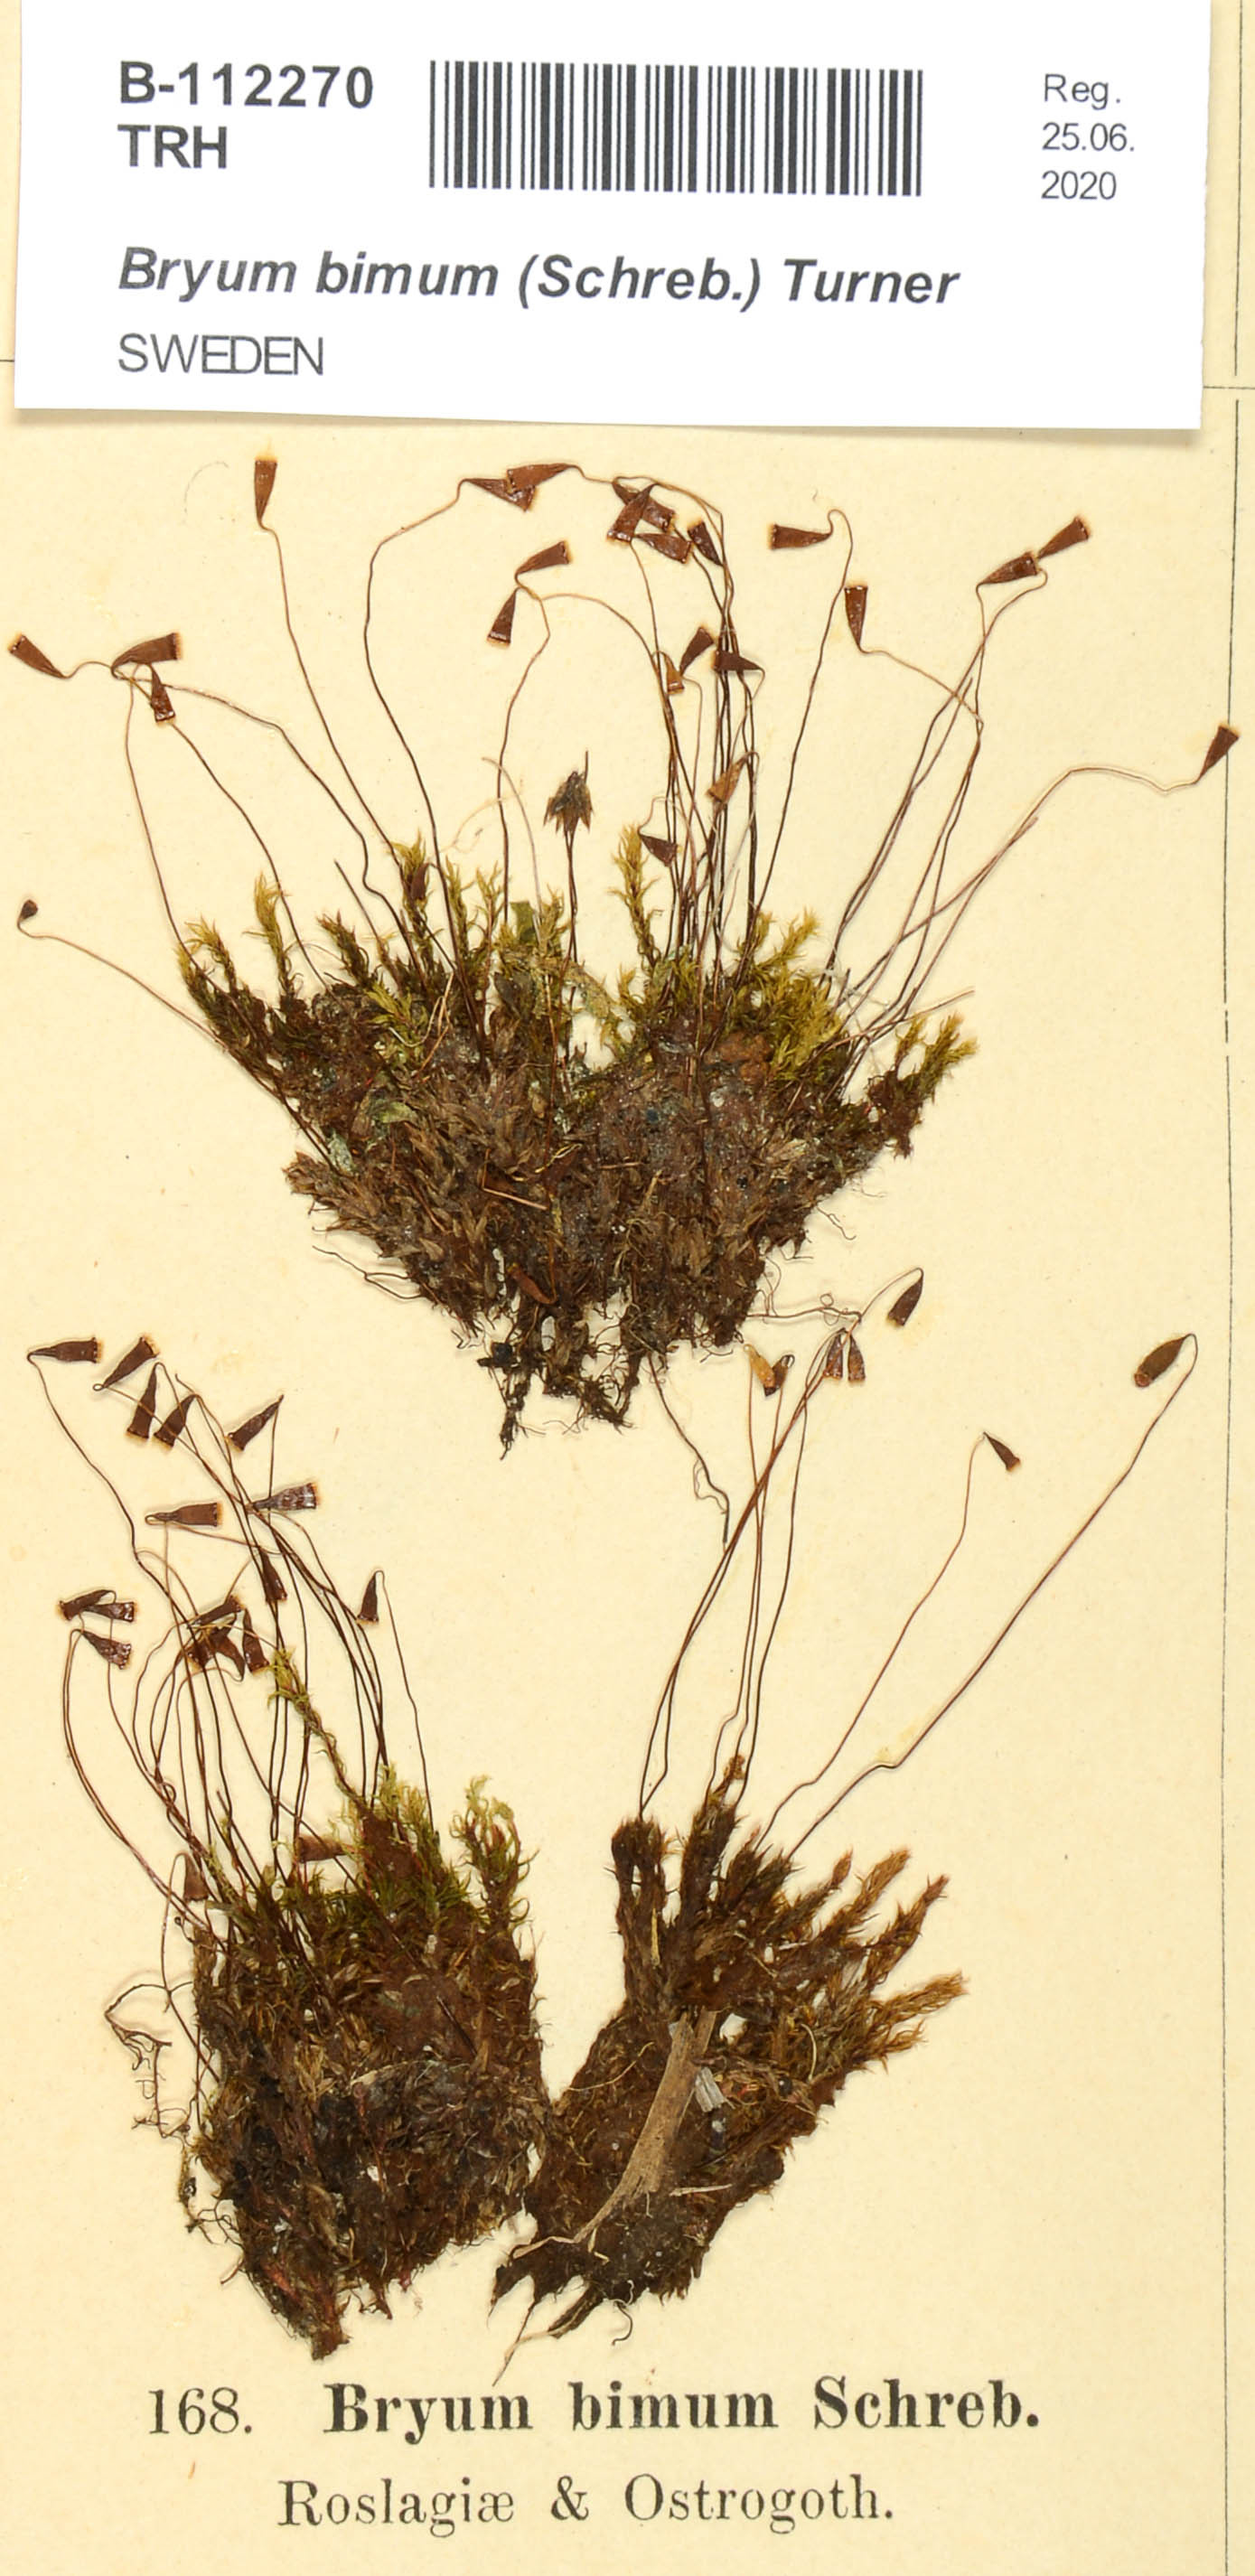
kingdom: Plantae
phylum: Bryophyta
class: Bryopsida
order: Bryales
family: Bryaceae
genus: Ptychostomum
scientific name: Ptychostomum bimum
